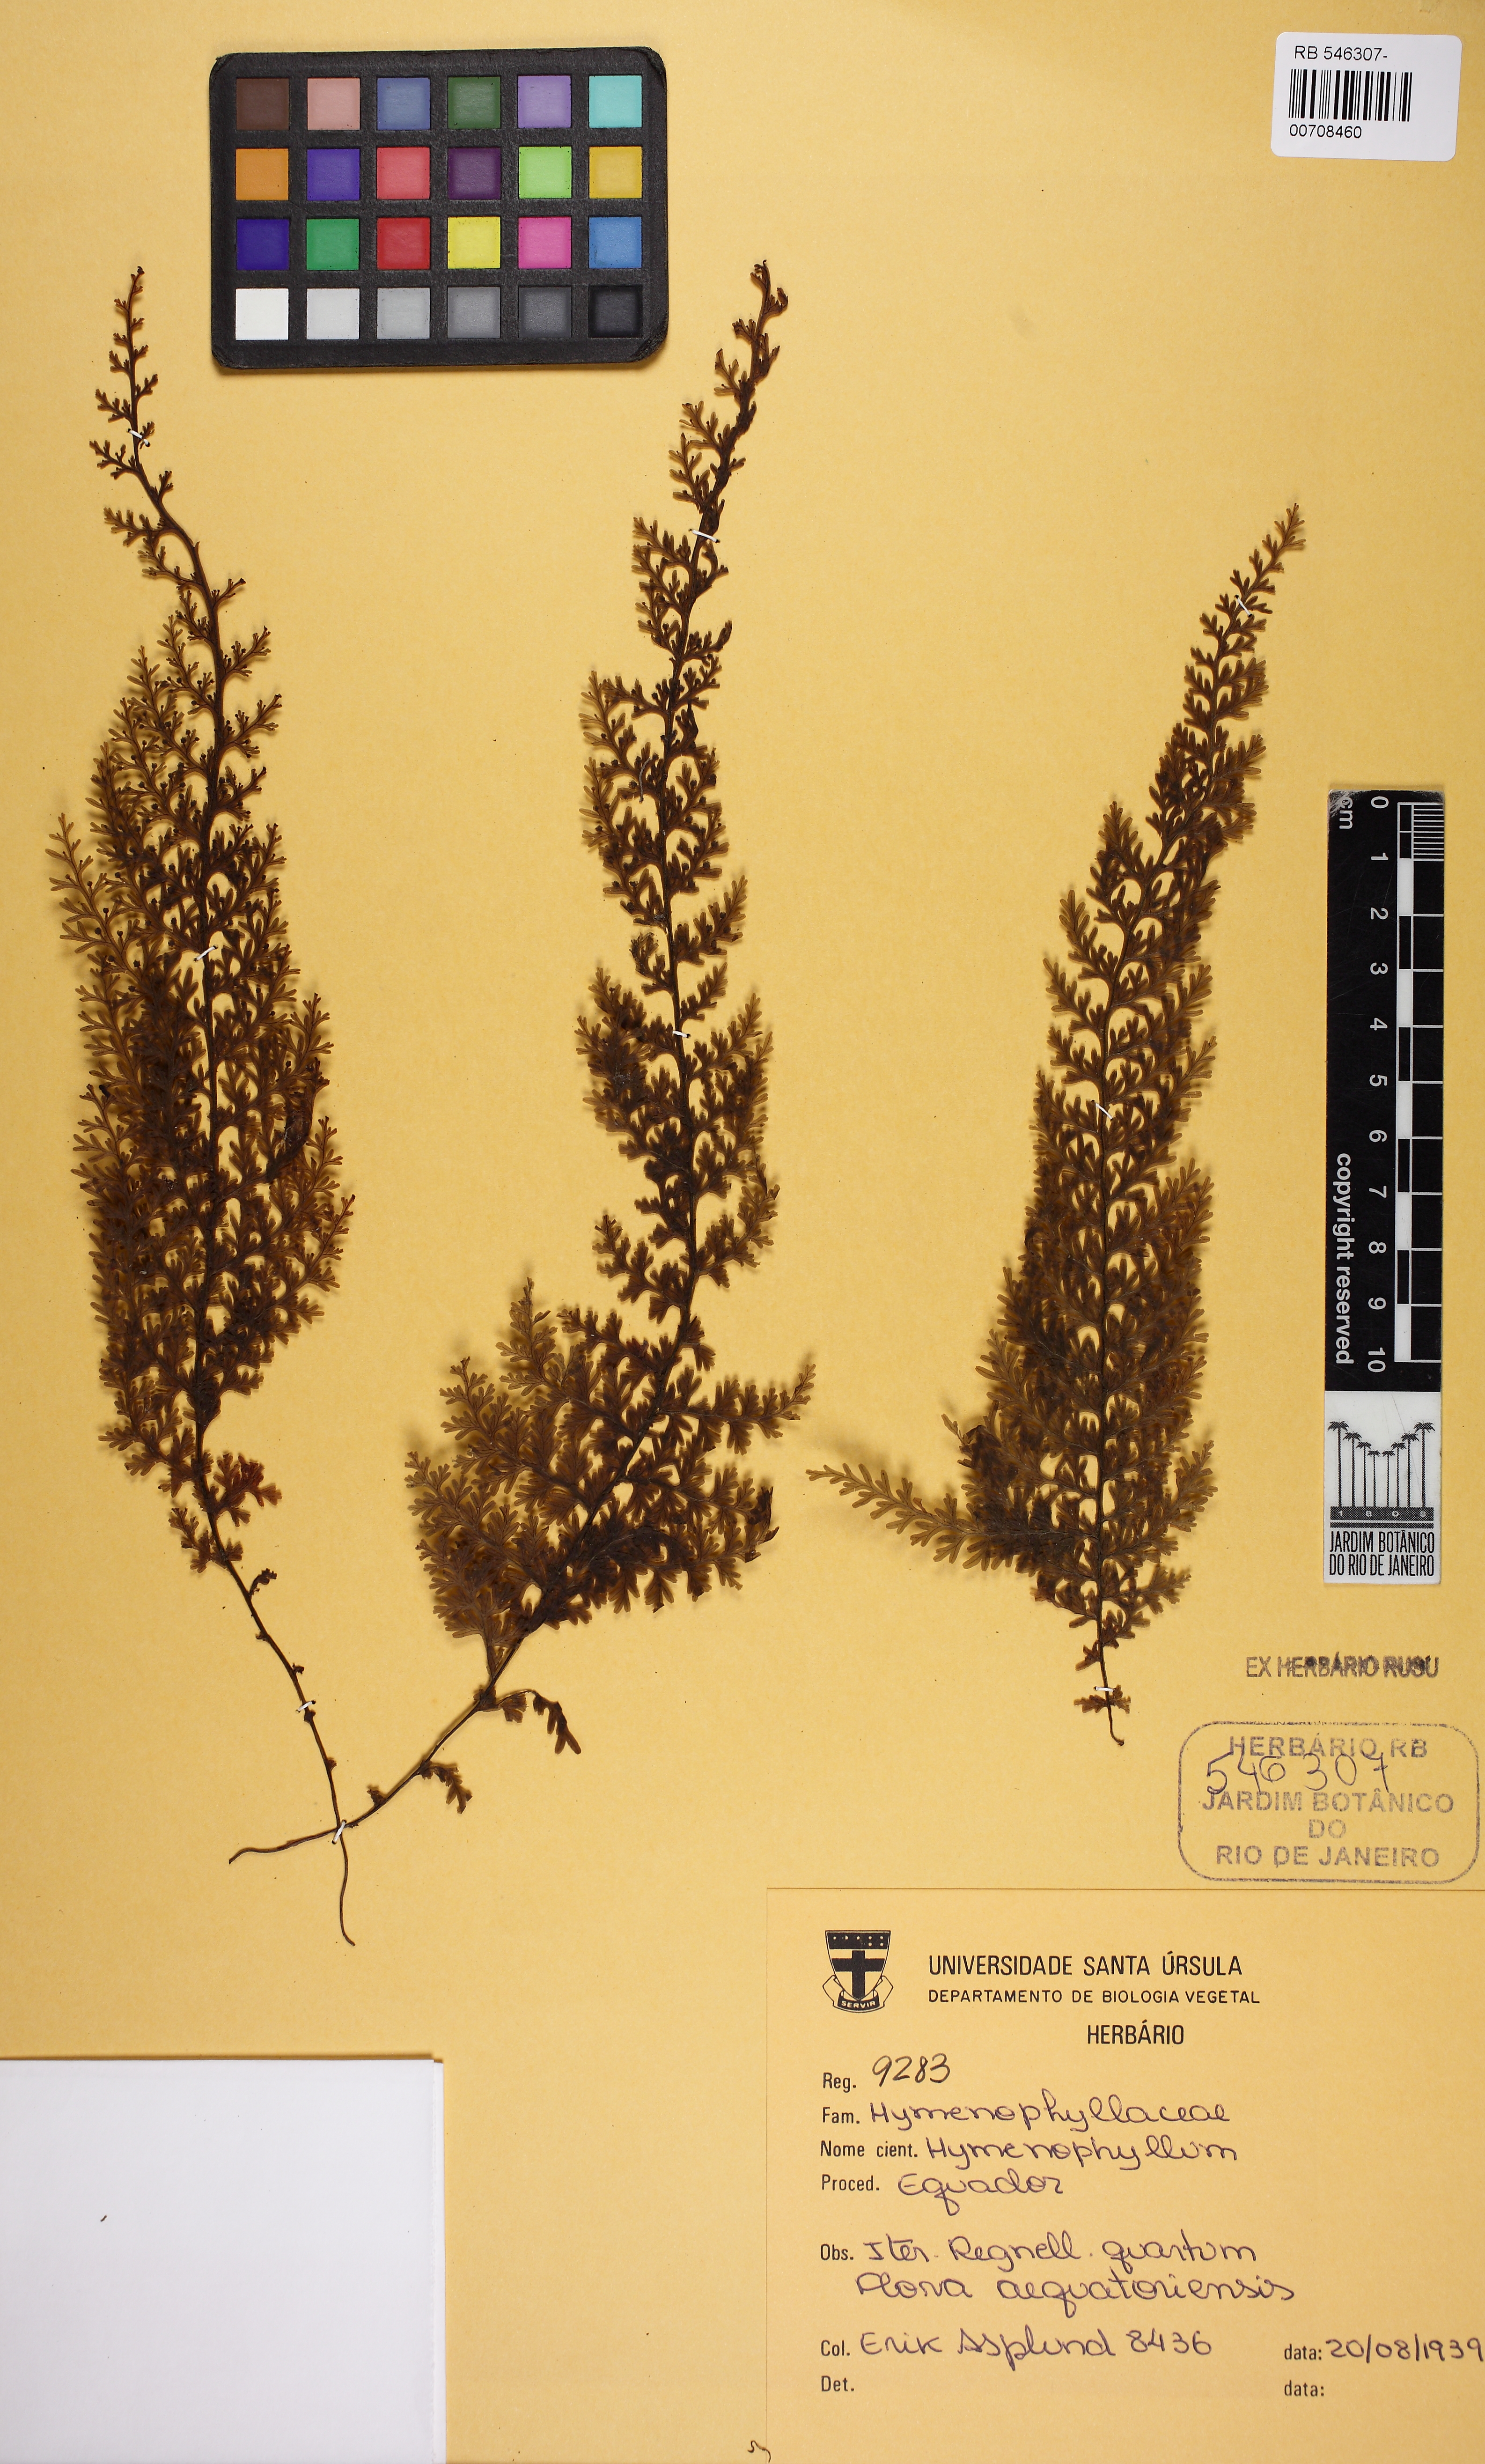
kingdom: Plantae
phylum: Tracheophyta
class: Polypodiopsida
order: Hymenophyllales
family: Hymenophyllaceae
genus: Hymenophyllum
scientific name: Hymenophyllum ferax
